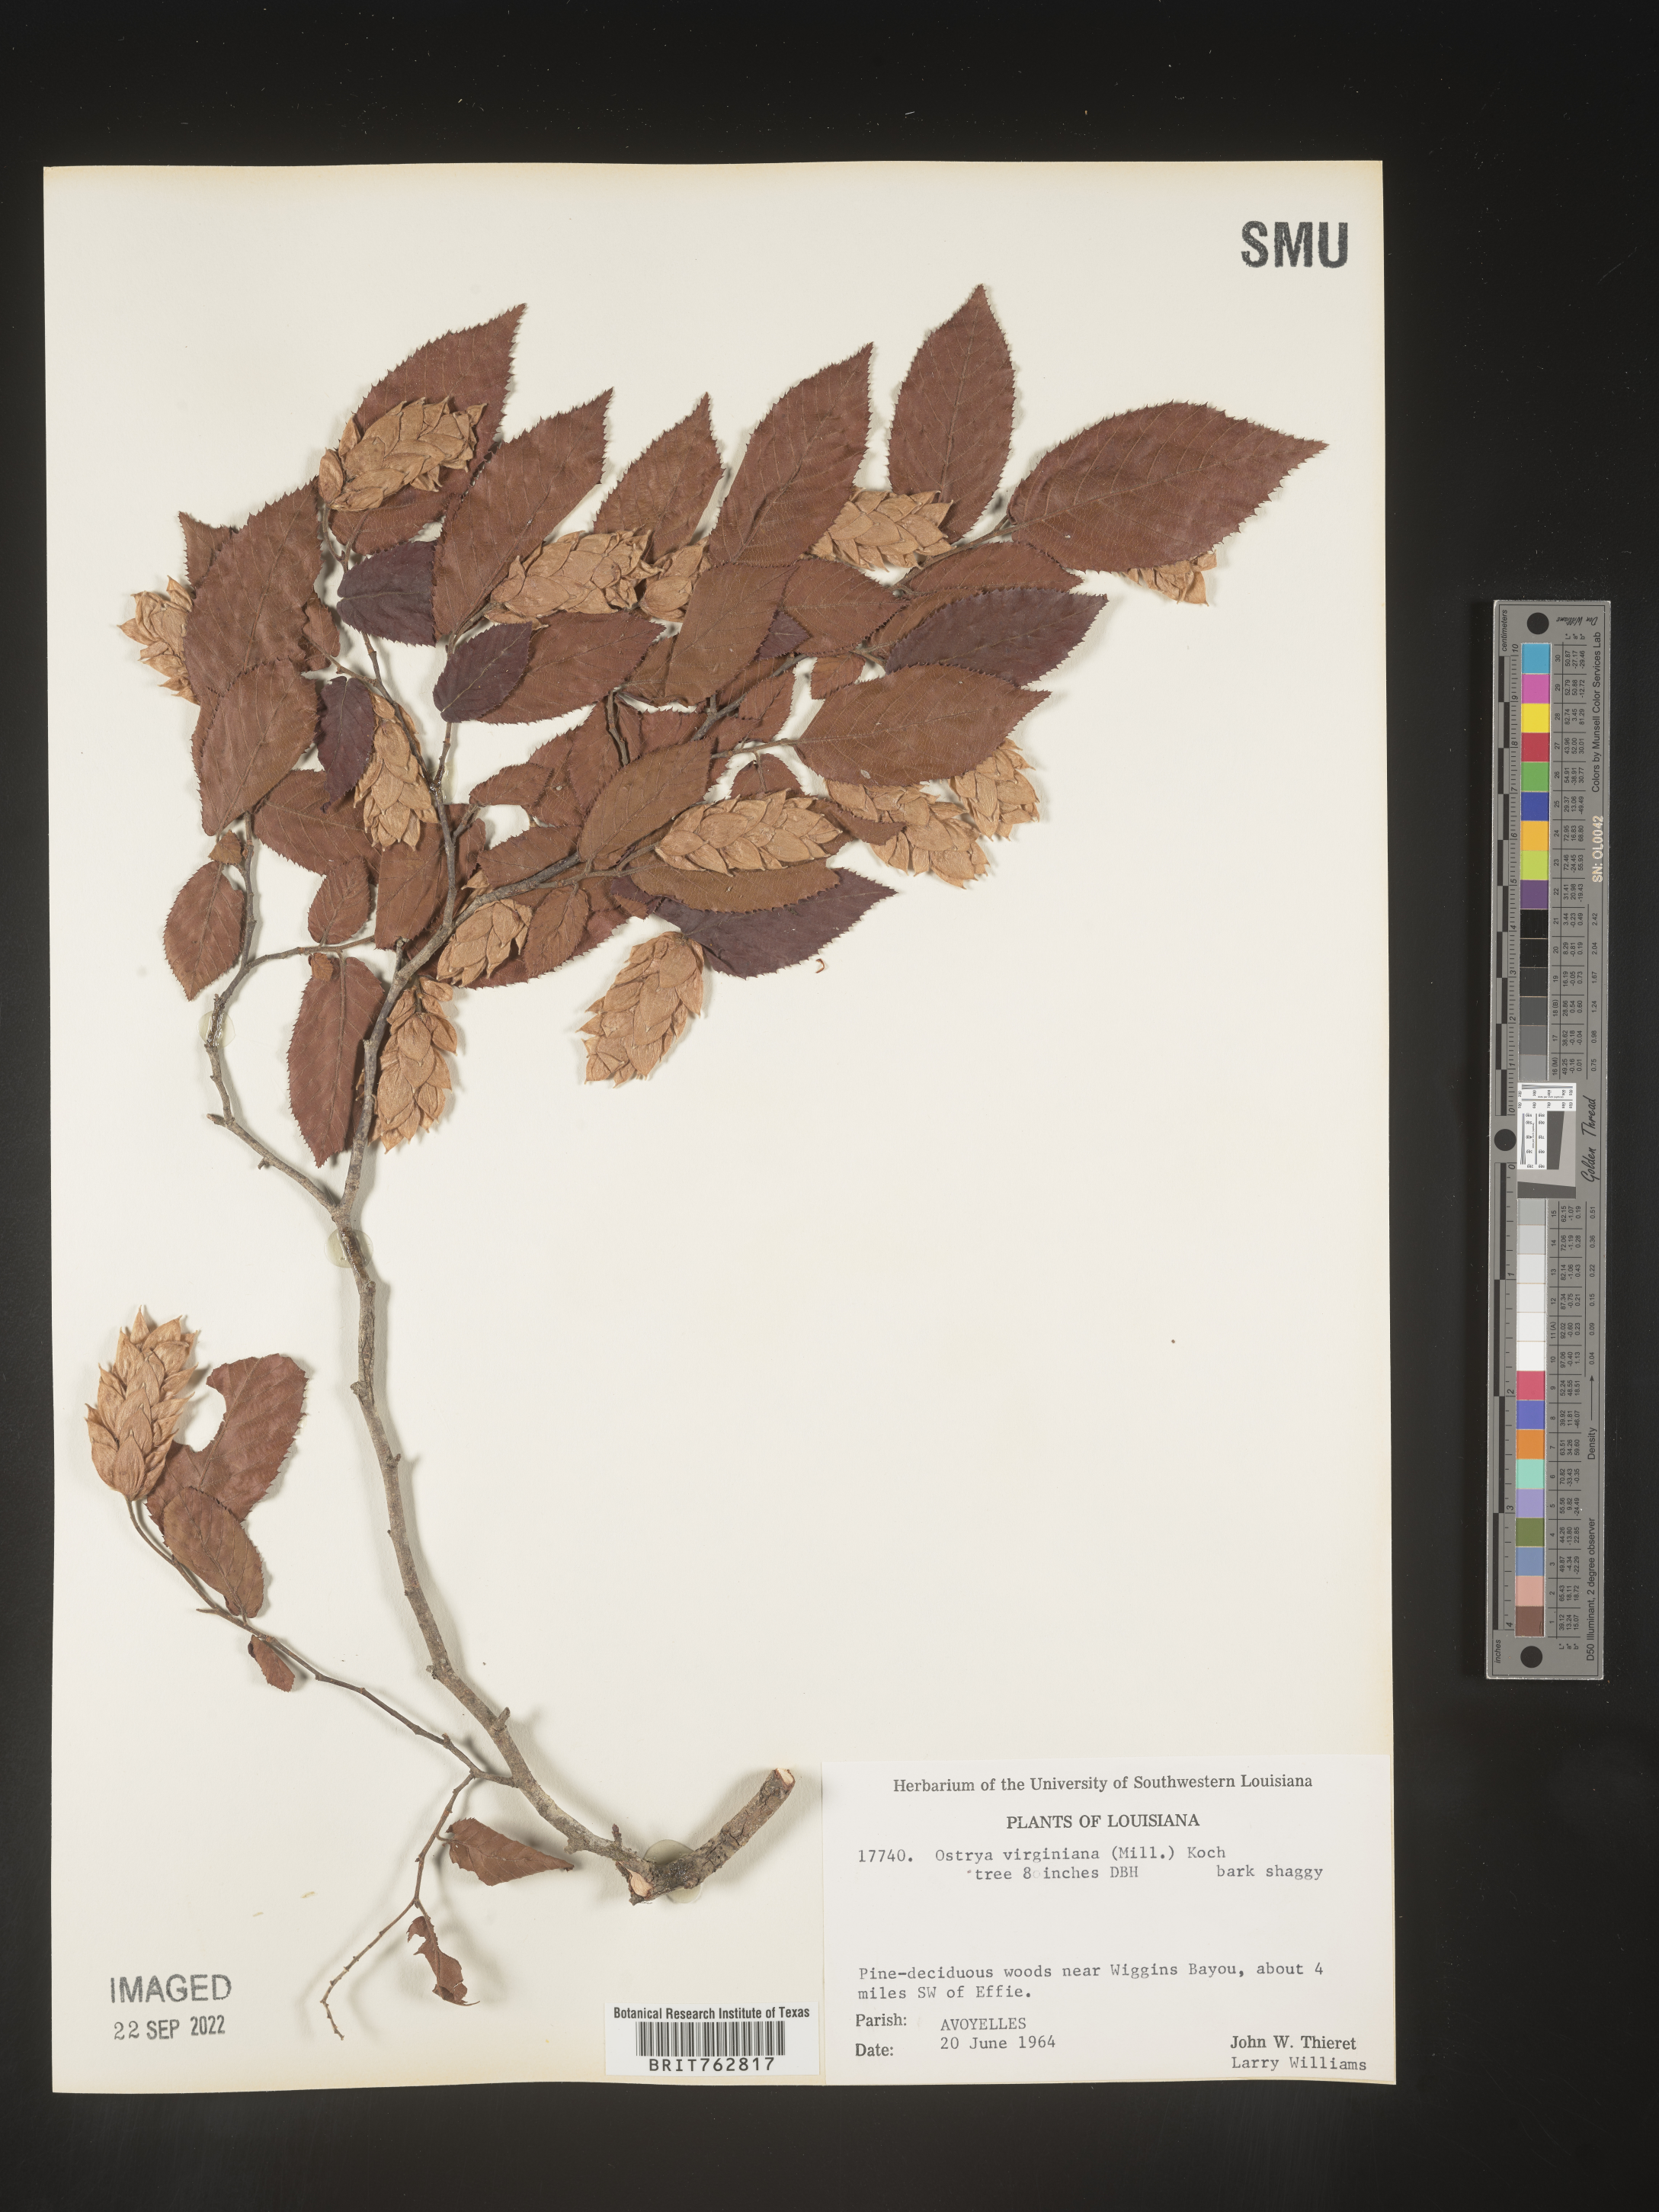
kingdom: Plantae
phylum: Tracheophyta
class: Magnoliopsida
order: Fagales
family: Betulaceae
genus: Ostrya
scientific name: Ostrya virginiana
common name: Ironwood
